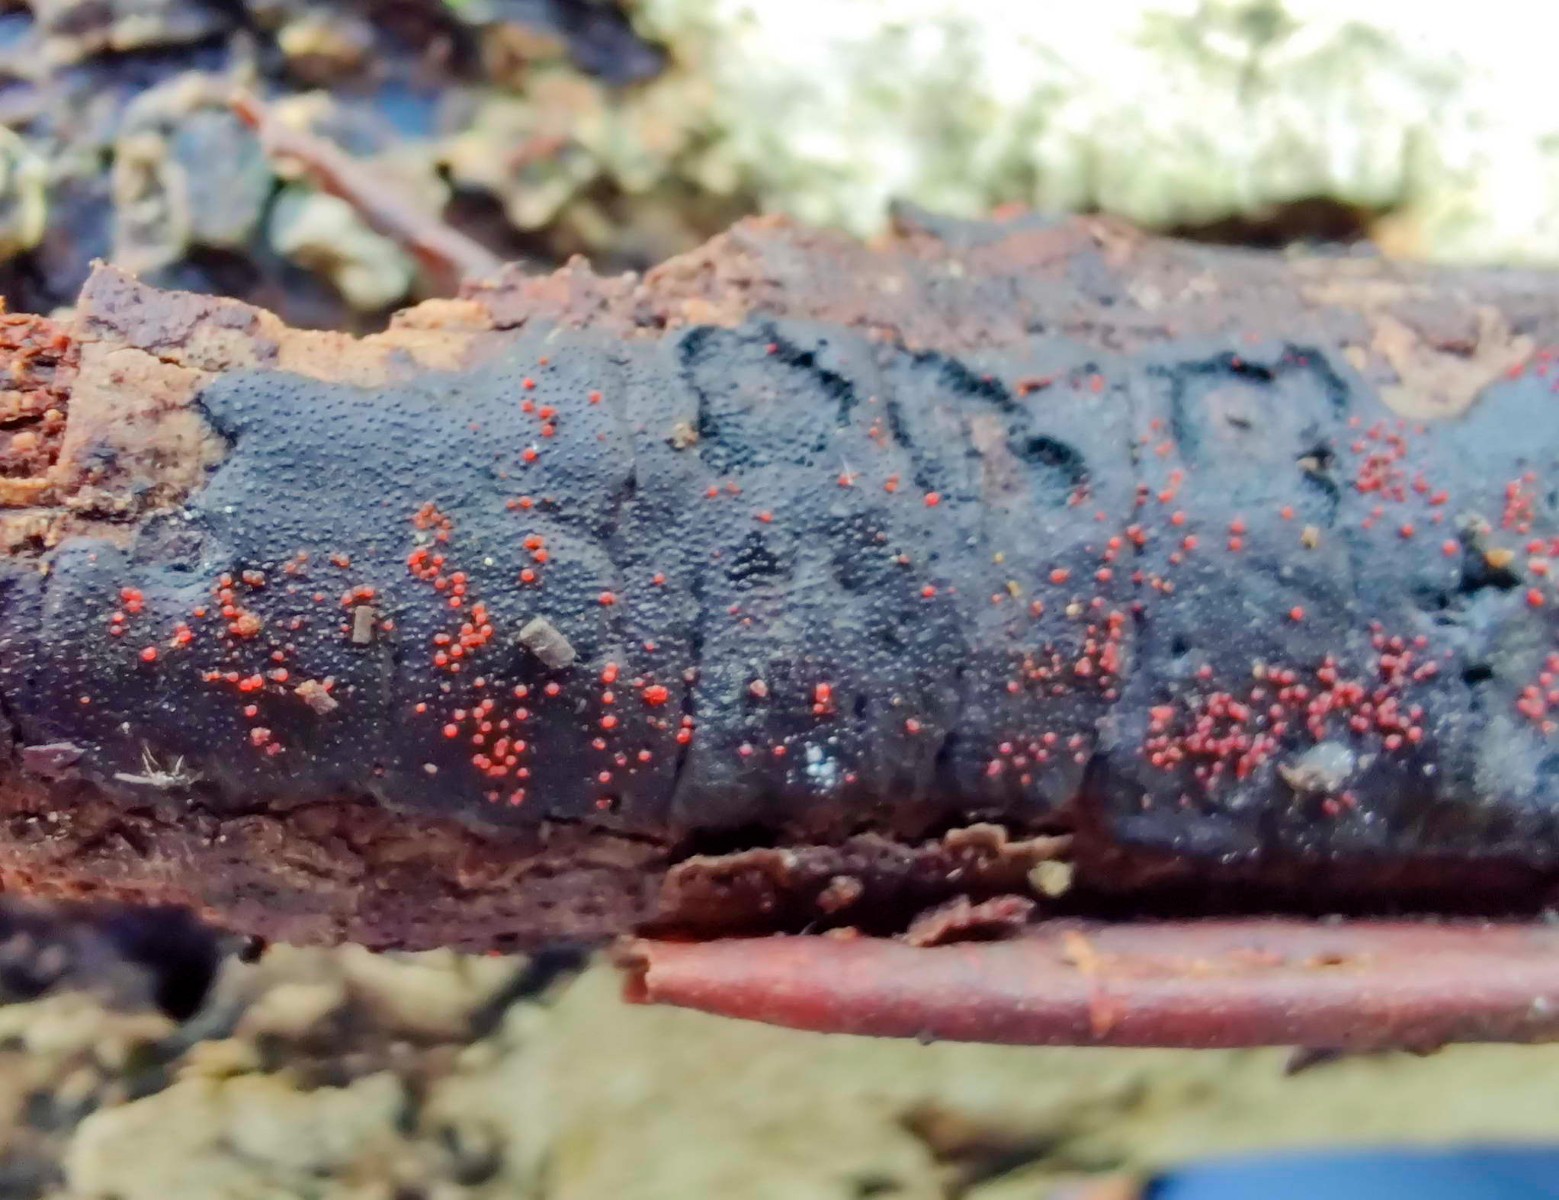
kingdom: Fungi
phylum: Ascomycota
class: Sordariomycetes
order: Hypocreales
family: Nectriaceae
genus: Dialonectria
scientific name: Dialonectria episphaeria
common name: kulskorpe-cinnobersvamp
